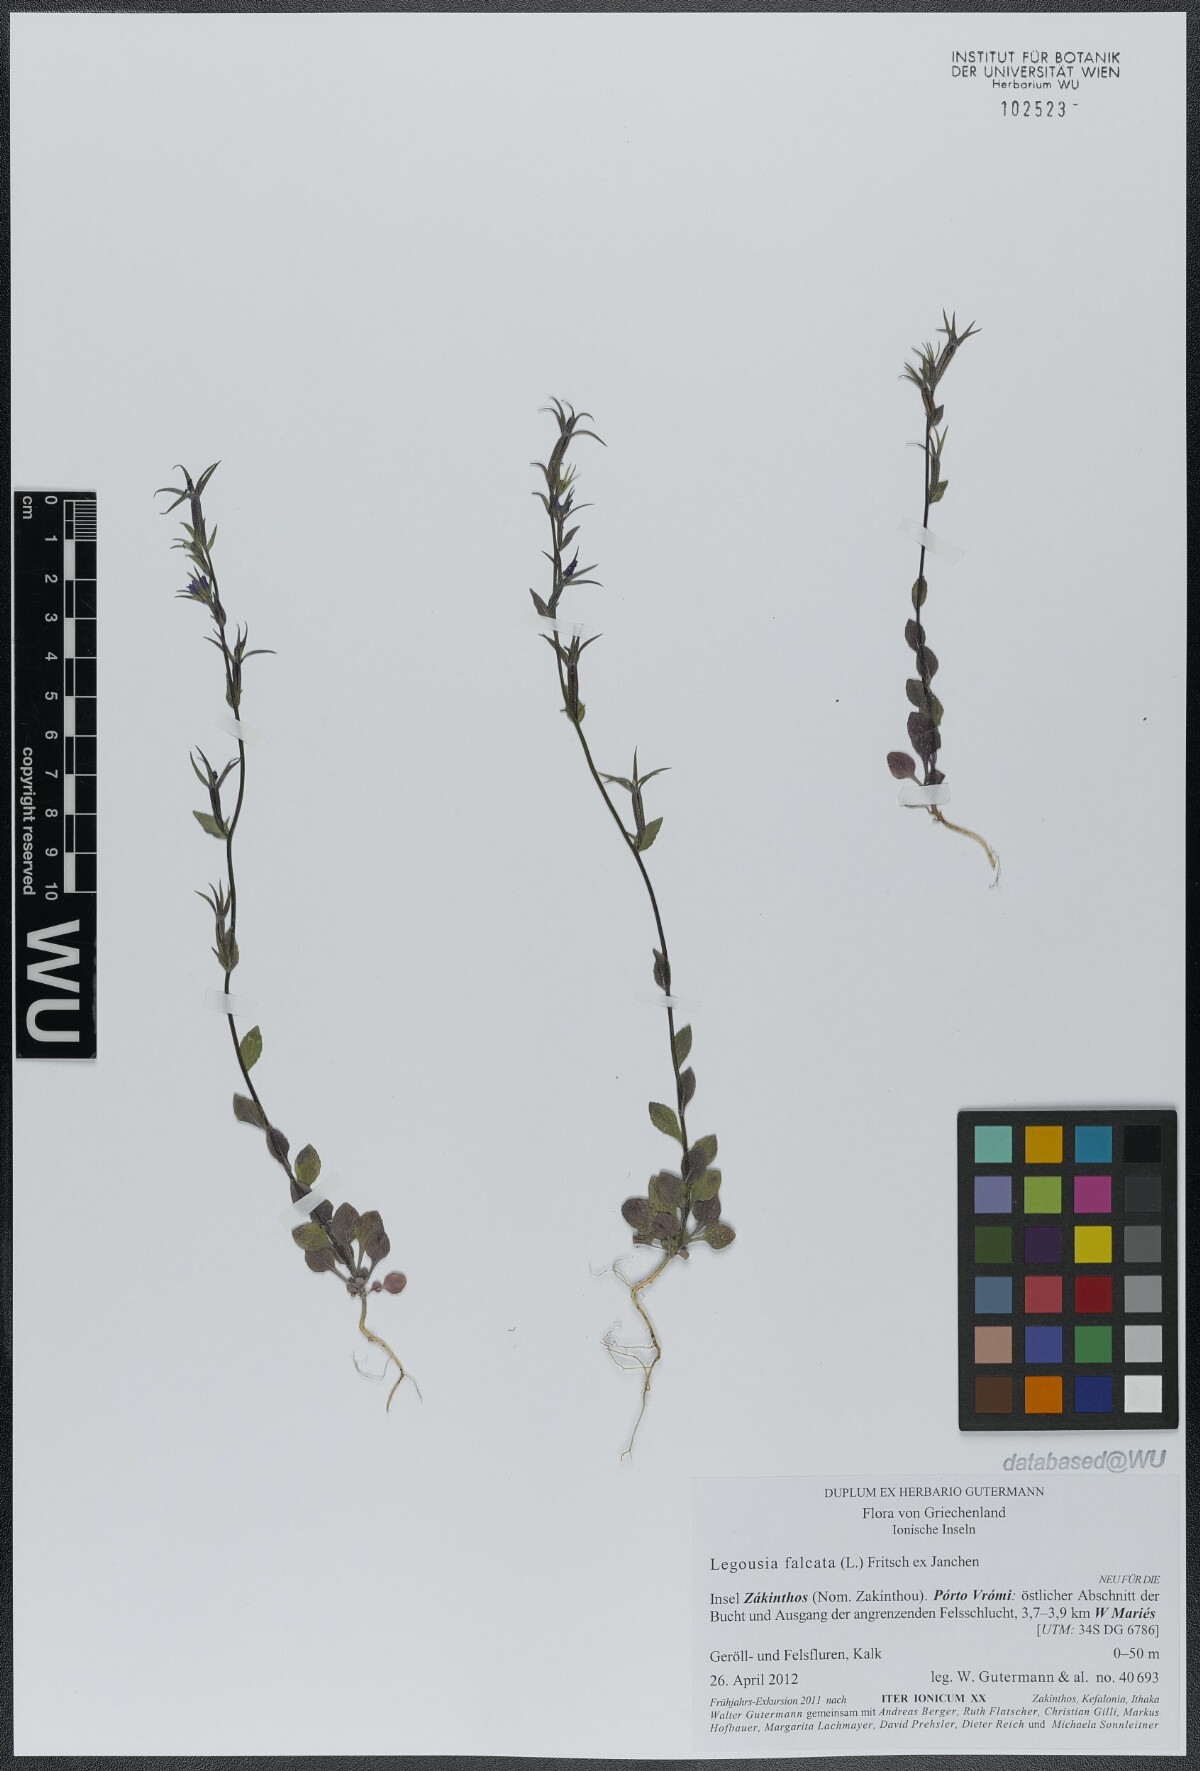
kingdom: Plantae
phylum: Tracheophyta
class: Magnoliopsida
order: Asterales
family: Campanulaceae
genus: Legousia
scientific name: Legousia falcata
